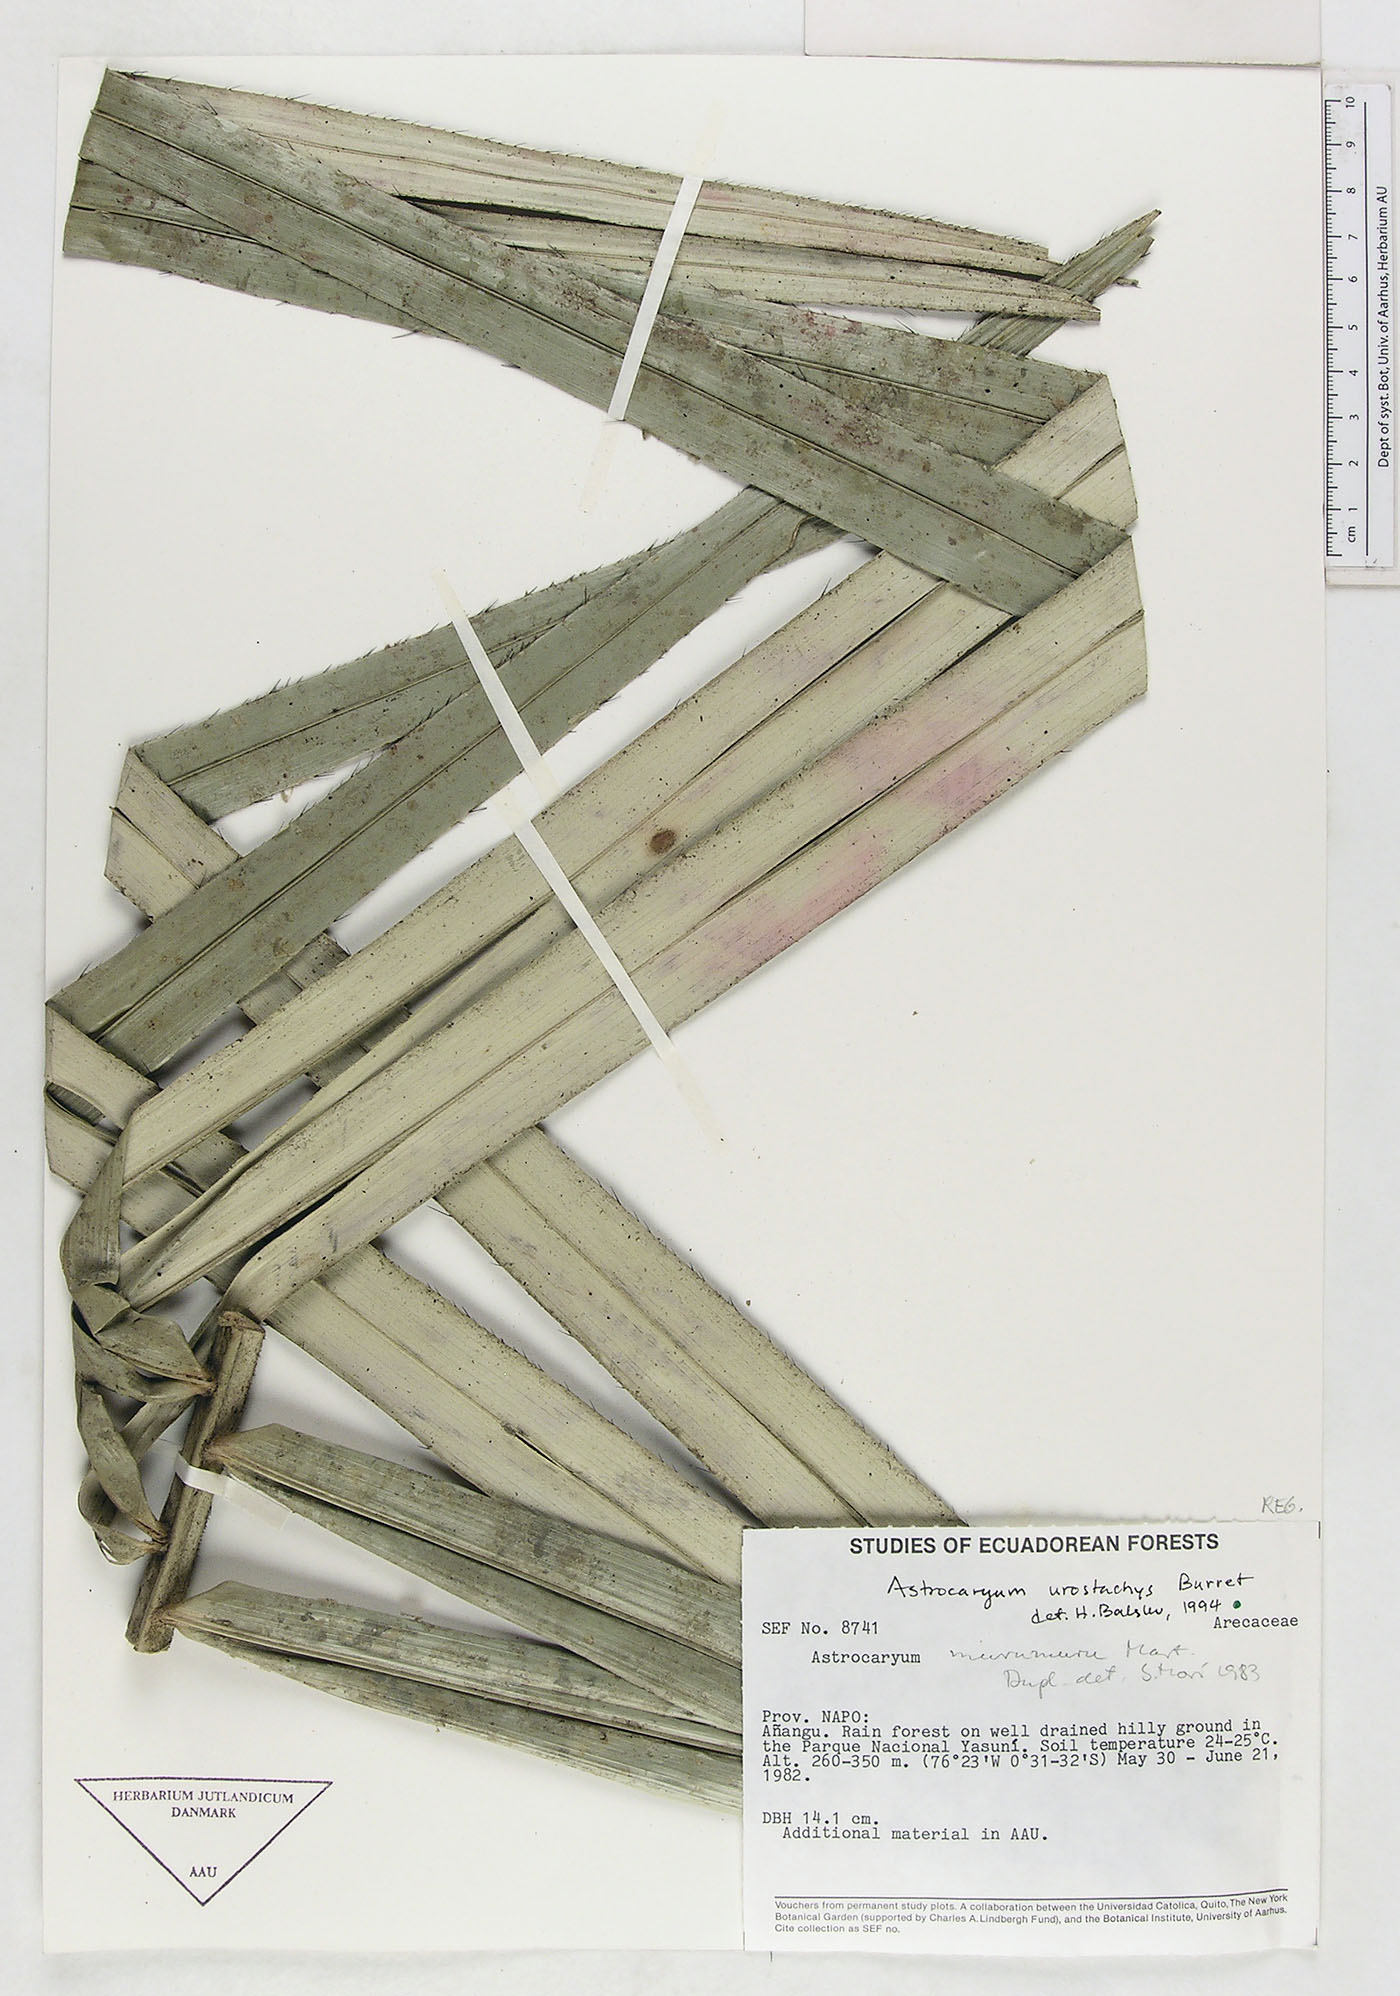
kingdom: Plantae
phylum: Tracheophyta
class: Liliopsida
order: Arecales
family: Arecaceae
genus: Astrocaryum
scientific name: Astrocaryum urostachys
